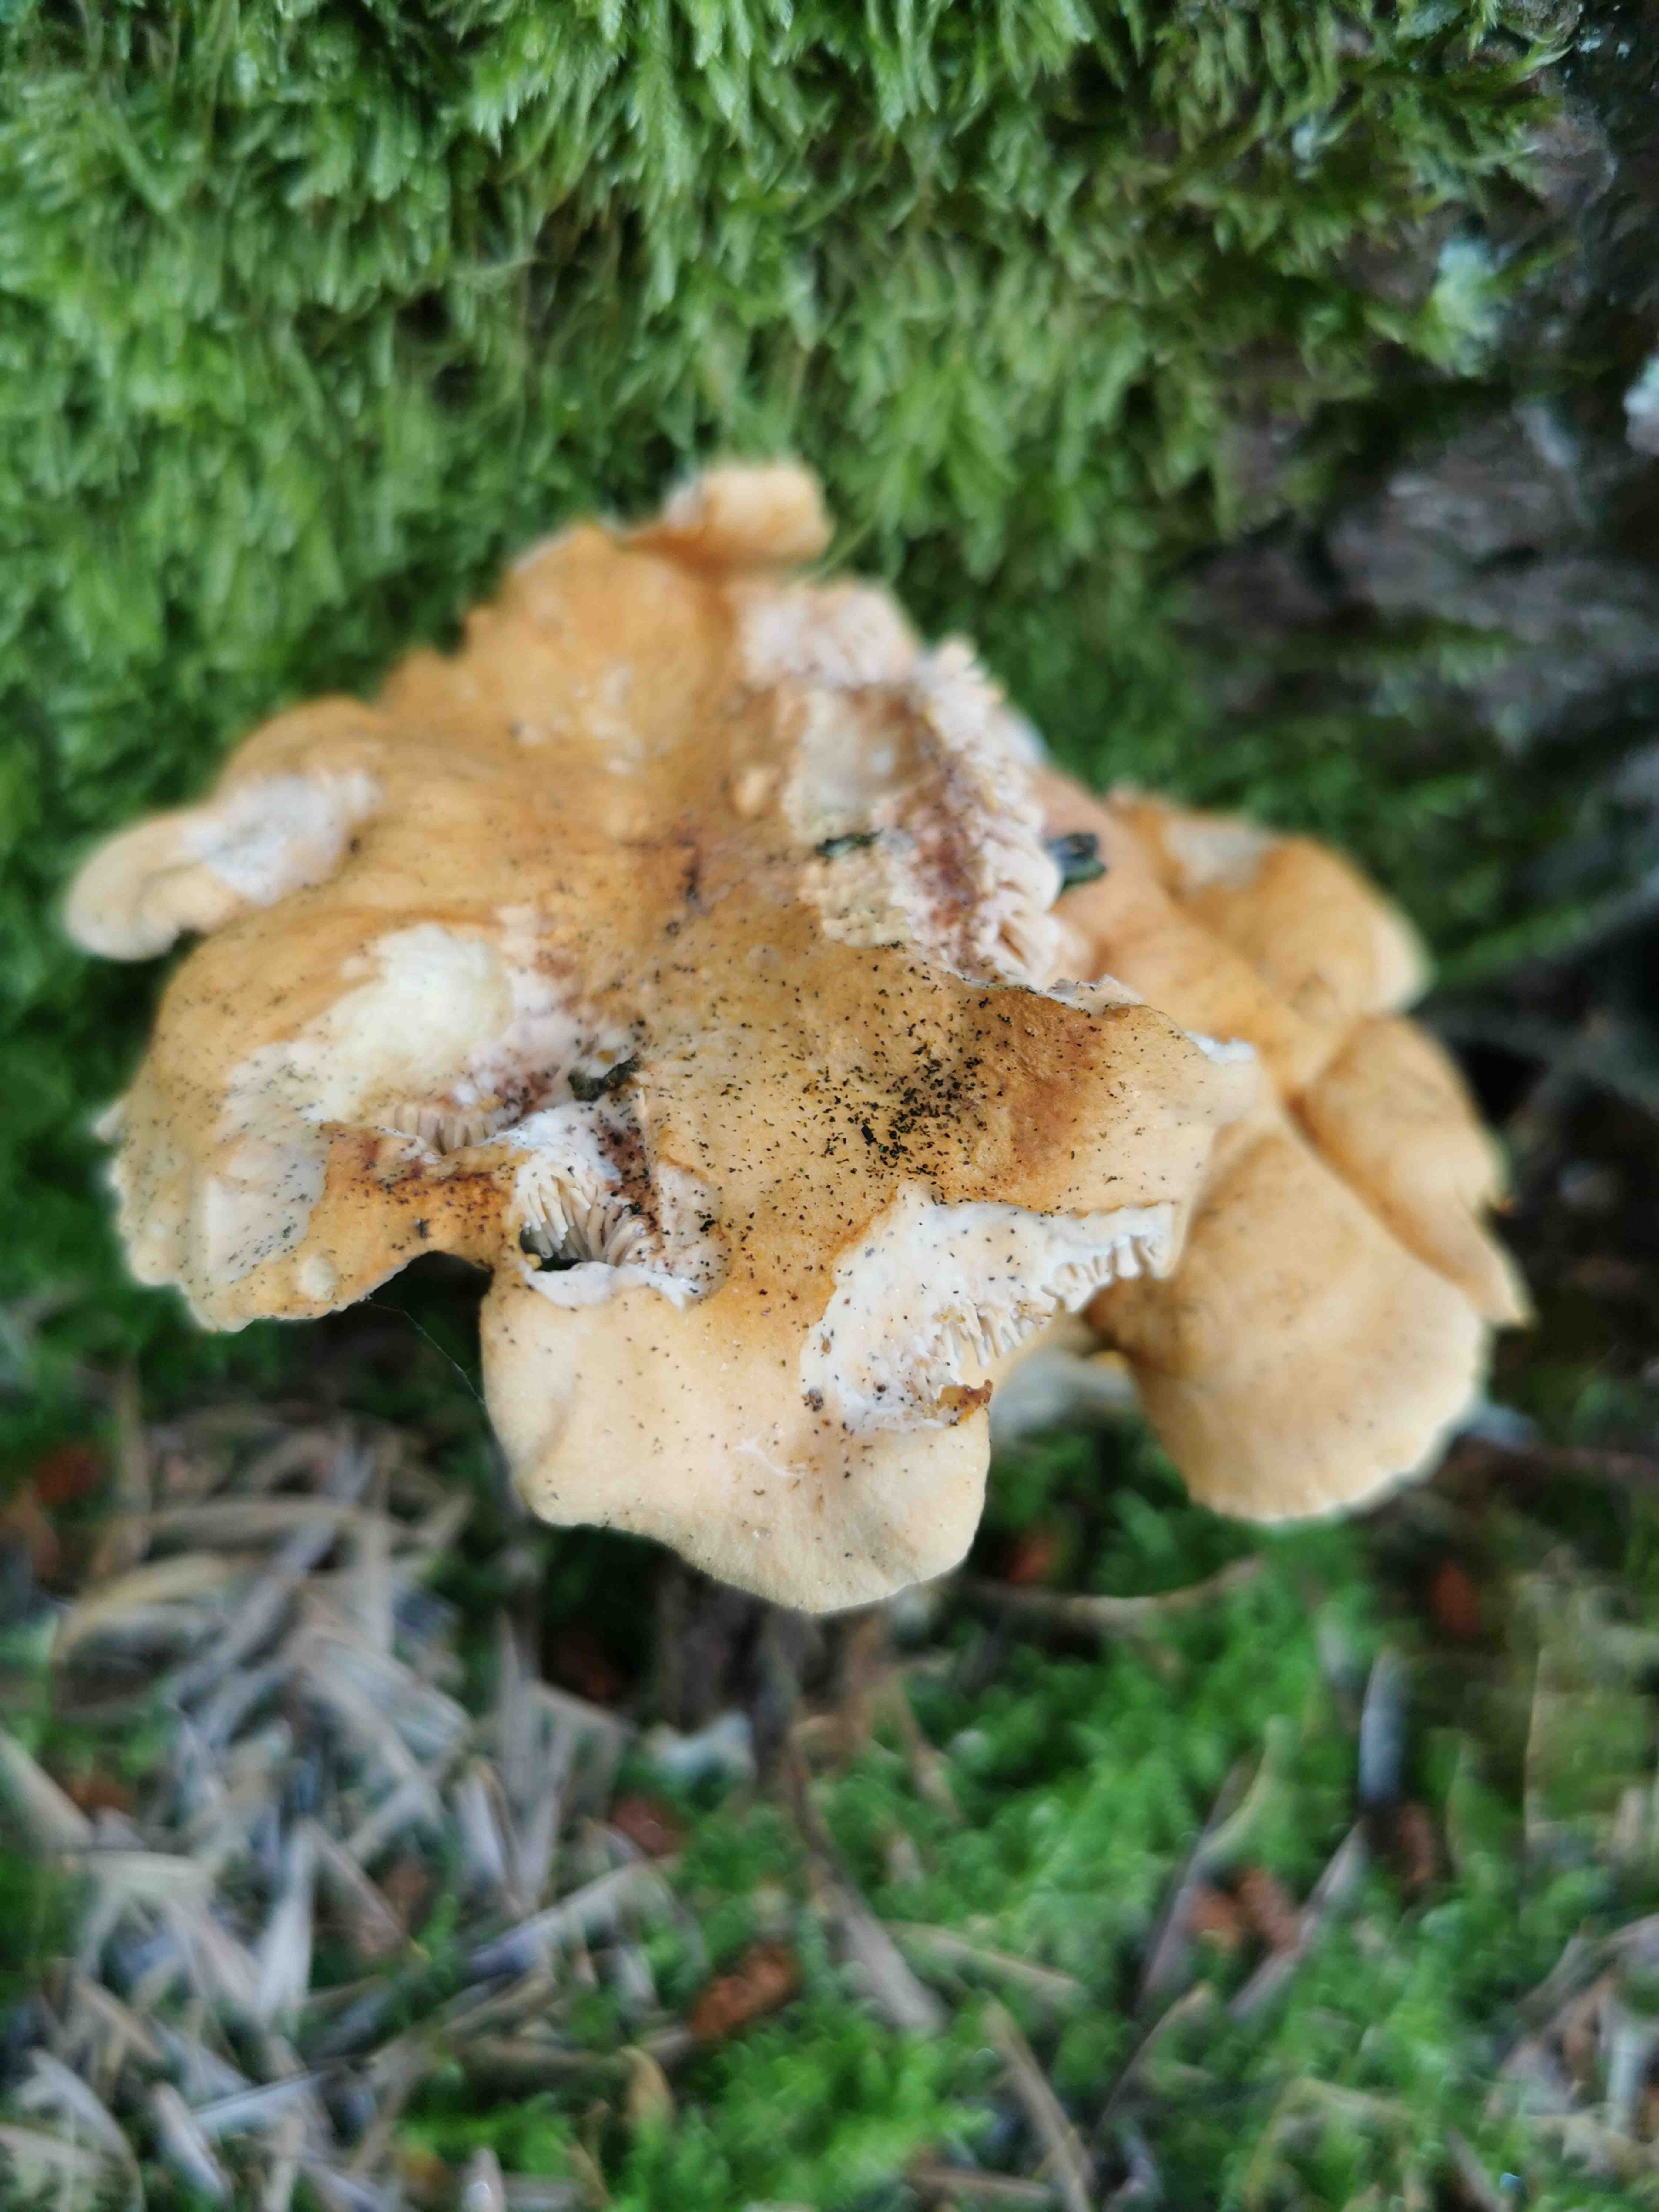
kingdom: Fungi
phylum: Basidiomycota
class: Agaricomycetes
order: Cantharellales
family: Hydnaceae
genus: Hydnum
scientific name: Hydnum
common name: pigsvamp
